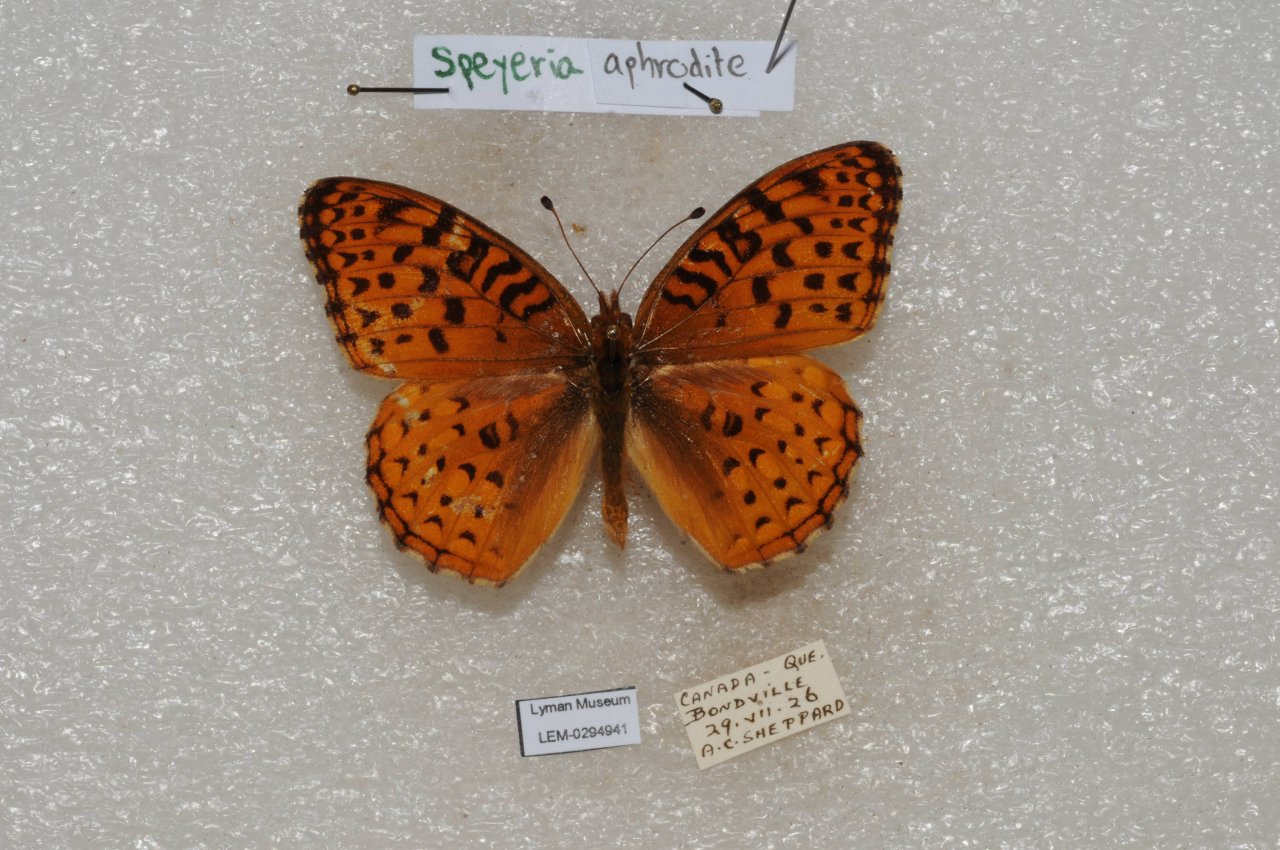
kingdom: Animalia
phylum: Arthropoda
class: Insecta
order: Lepidoptera
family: Nymphalidae
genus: Speyeria
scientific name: Speyeria aphrodite
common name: Aphrodite Fritillary
